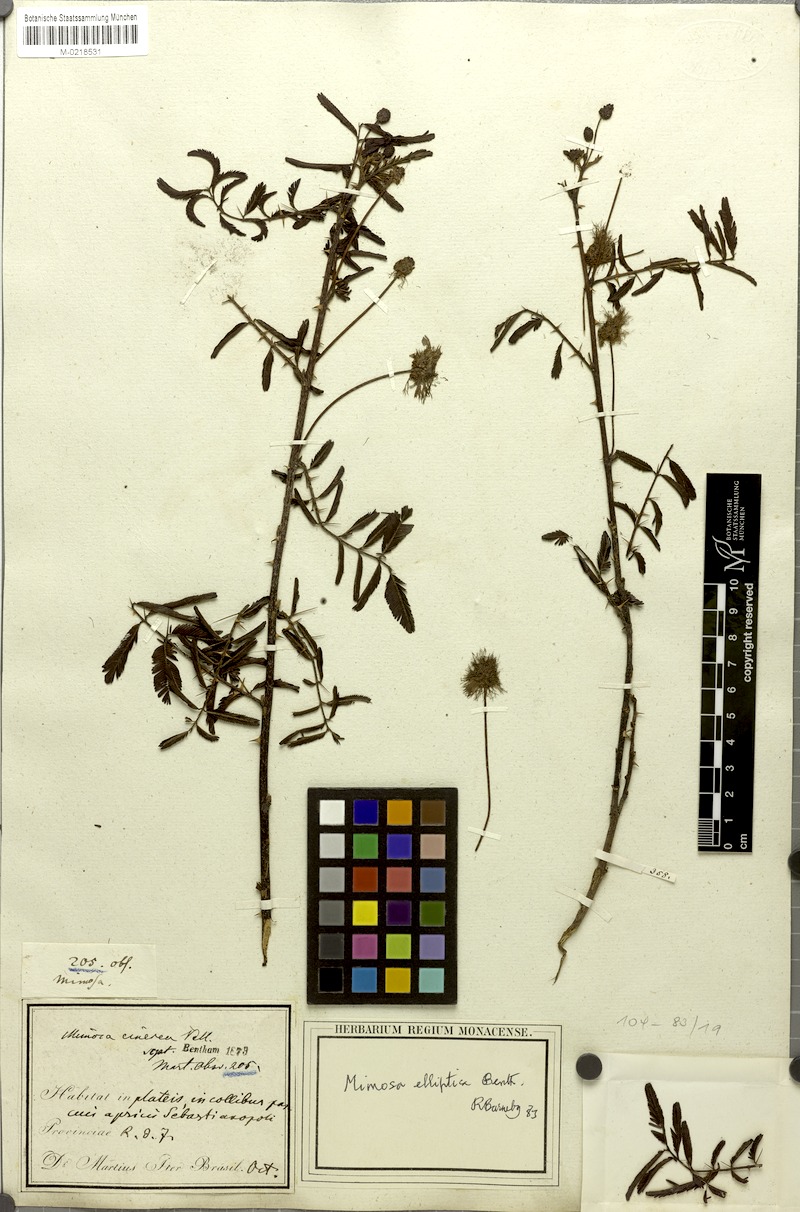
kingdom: Plantae
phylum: Tracheophyta
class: Magnoliopsida
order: Fabales
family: Fabaceae
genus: Mimosa
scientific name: Mimosa elliptica
